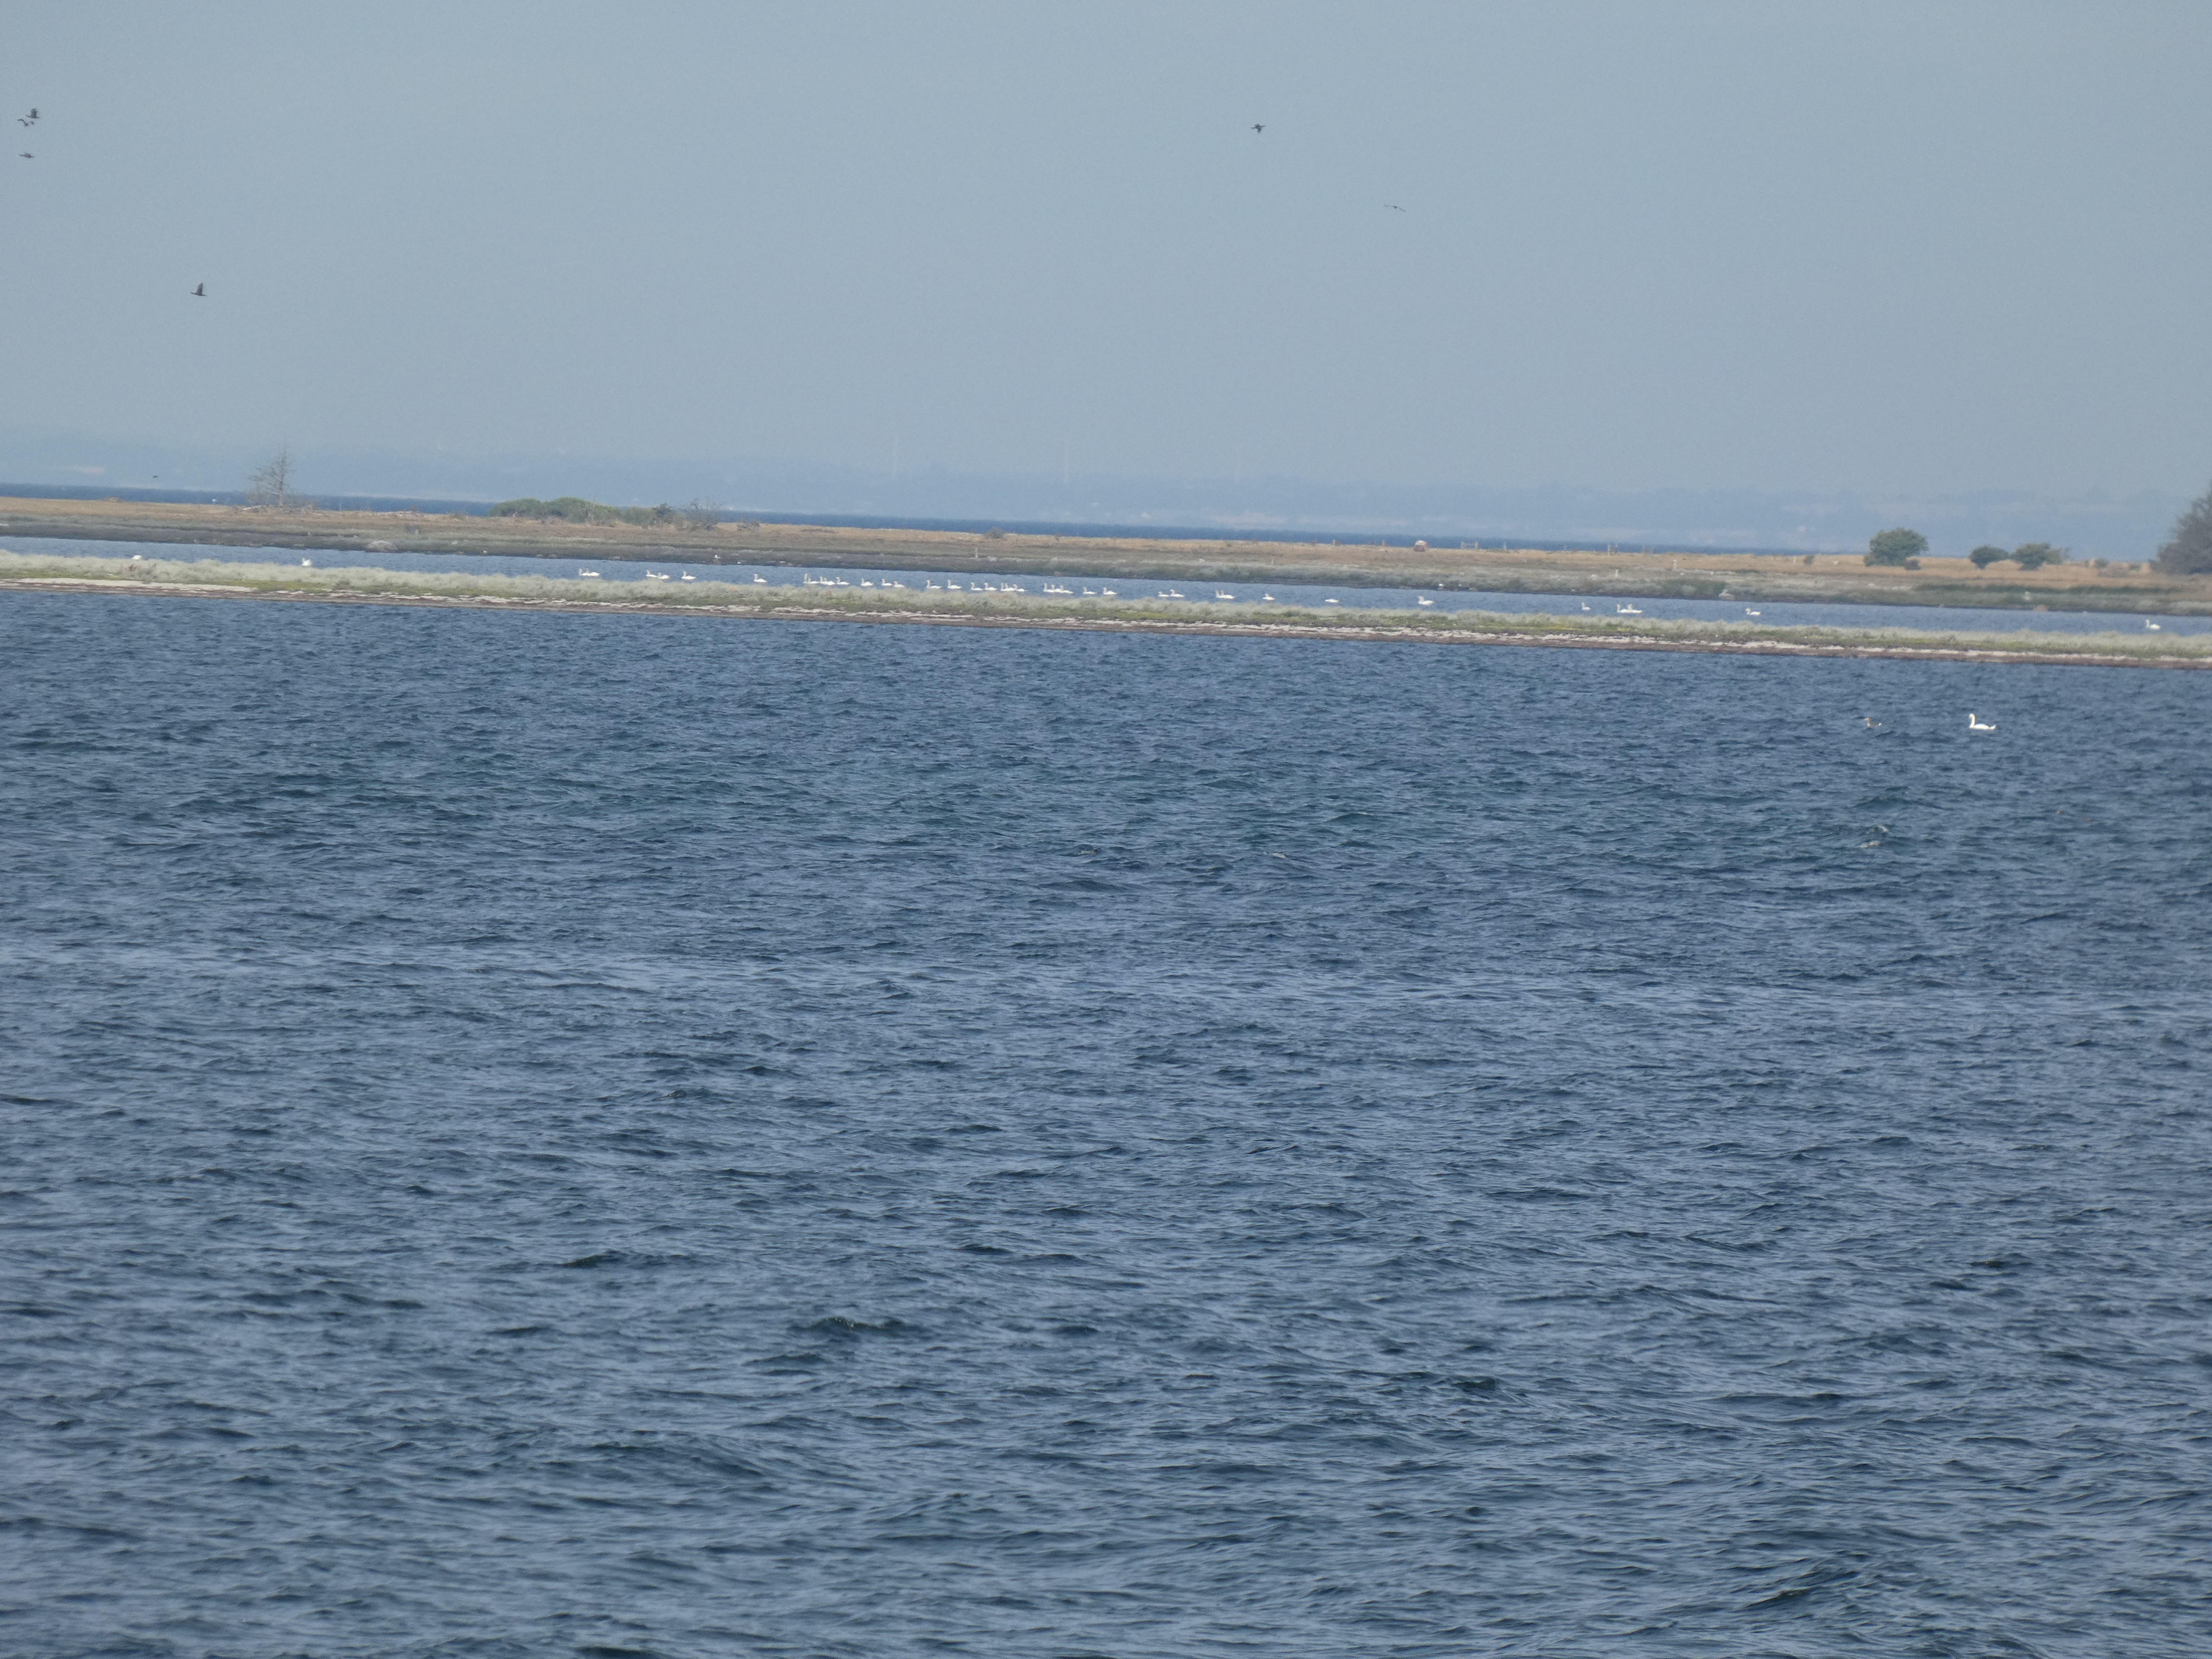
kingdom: Animalia
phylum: Chordata
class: Aves
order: Anseriformes
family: Anatidae
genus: Cygnus
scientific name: Cygnus olor
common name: Knopsvane
